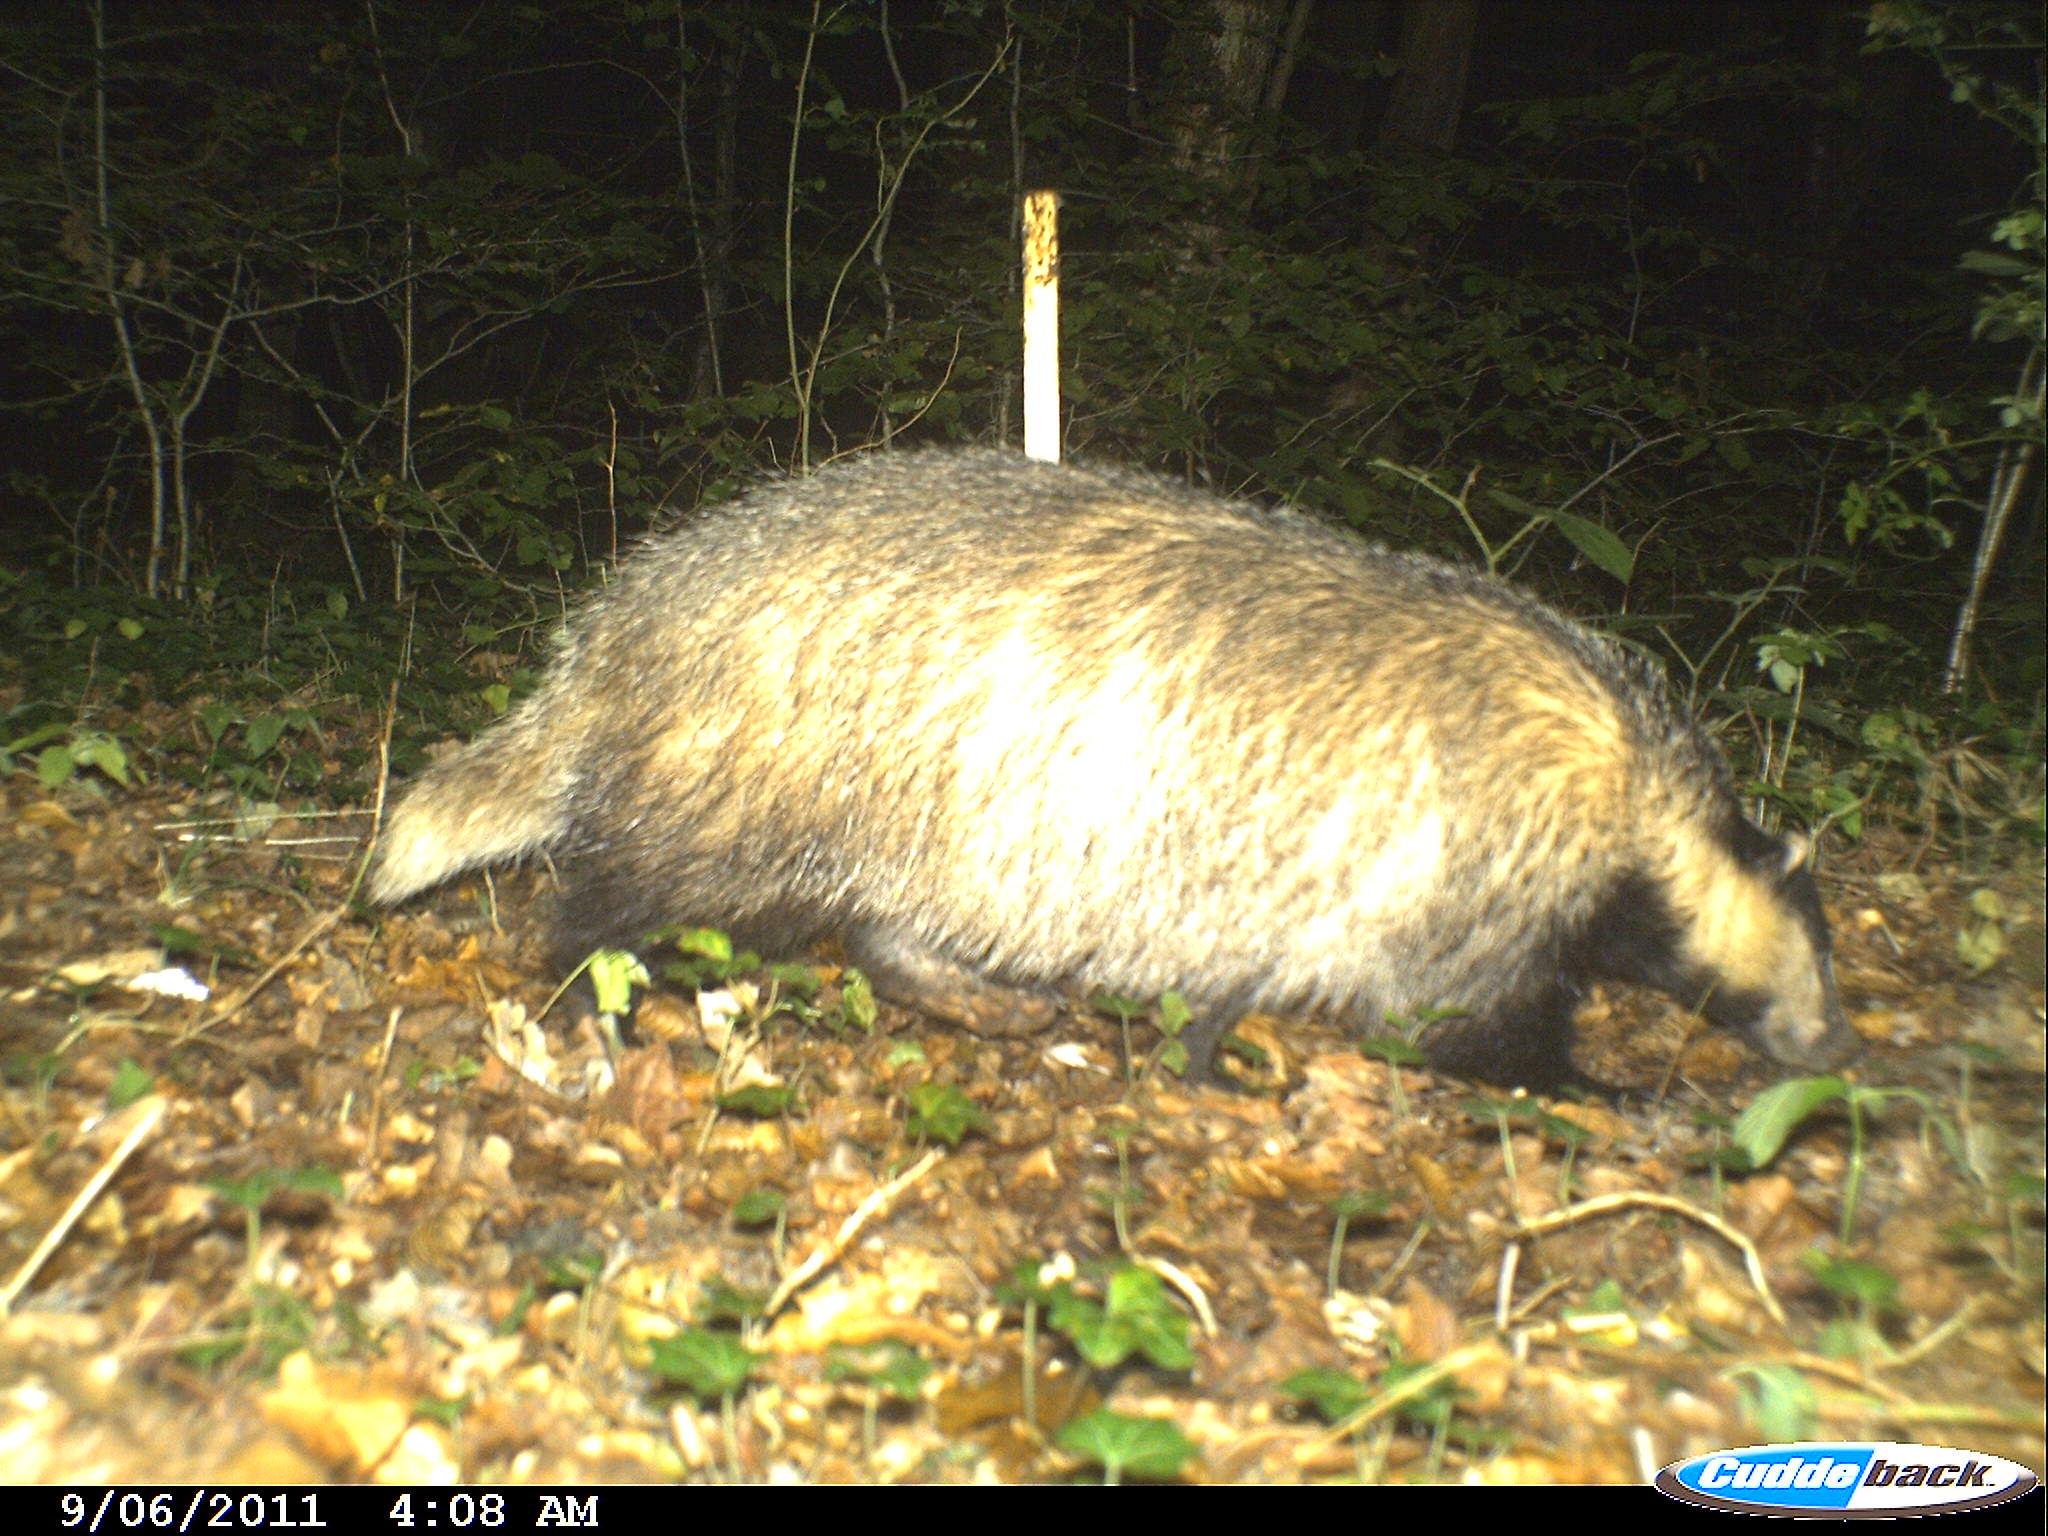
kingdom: Animalia
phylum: Chordata
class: Mammalia
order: Carnivora
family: Mustelidae
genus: Meles
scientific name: Meles meles
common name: Eurasian badger
